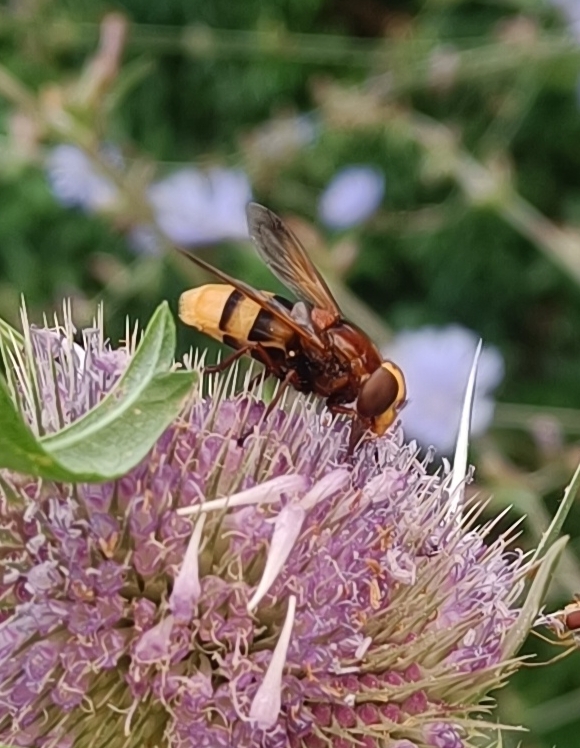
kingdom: Animalia
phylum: Arthropoda
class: Insecta
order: Diptera
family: Syrphidae
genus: Volucella
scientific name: Volucella zonaria
